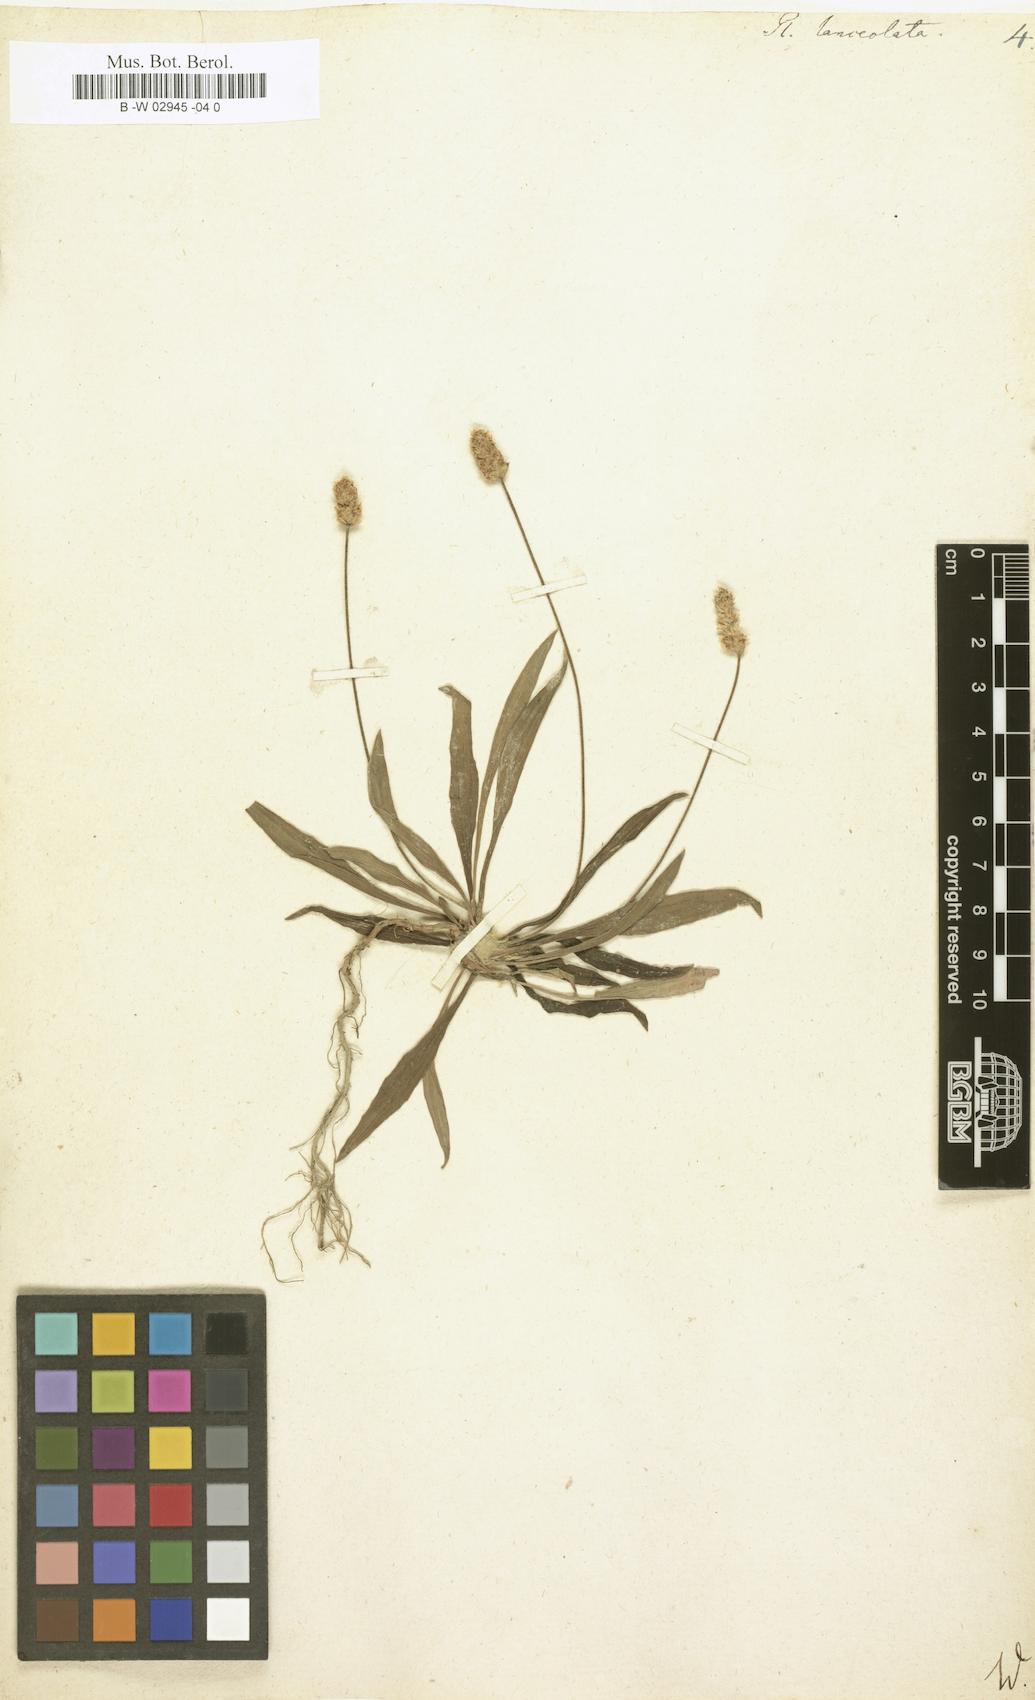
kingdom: Plantae
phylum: Tracheophyta
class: Magnoliopsida
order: Lamiales
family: Plantaginaceae
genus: Plantago
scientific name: Plantago lanceolata
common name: Ribwort plantain
